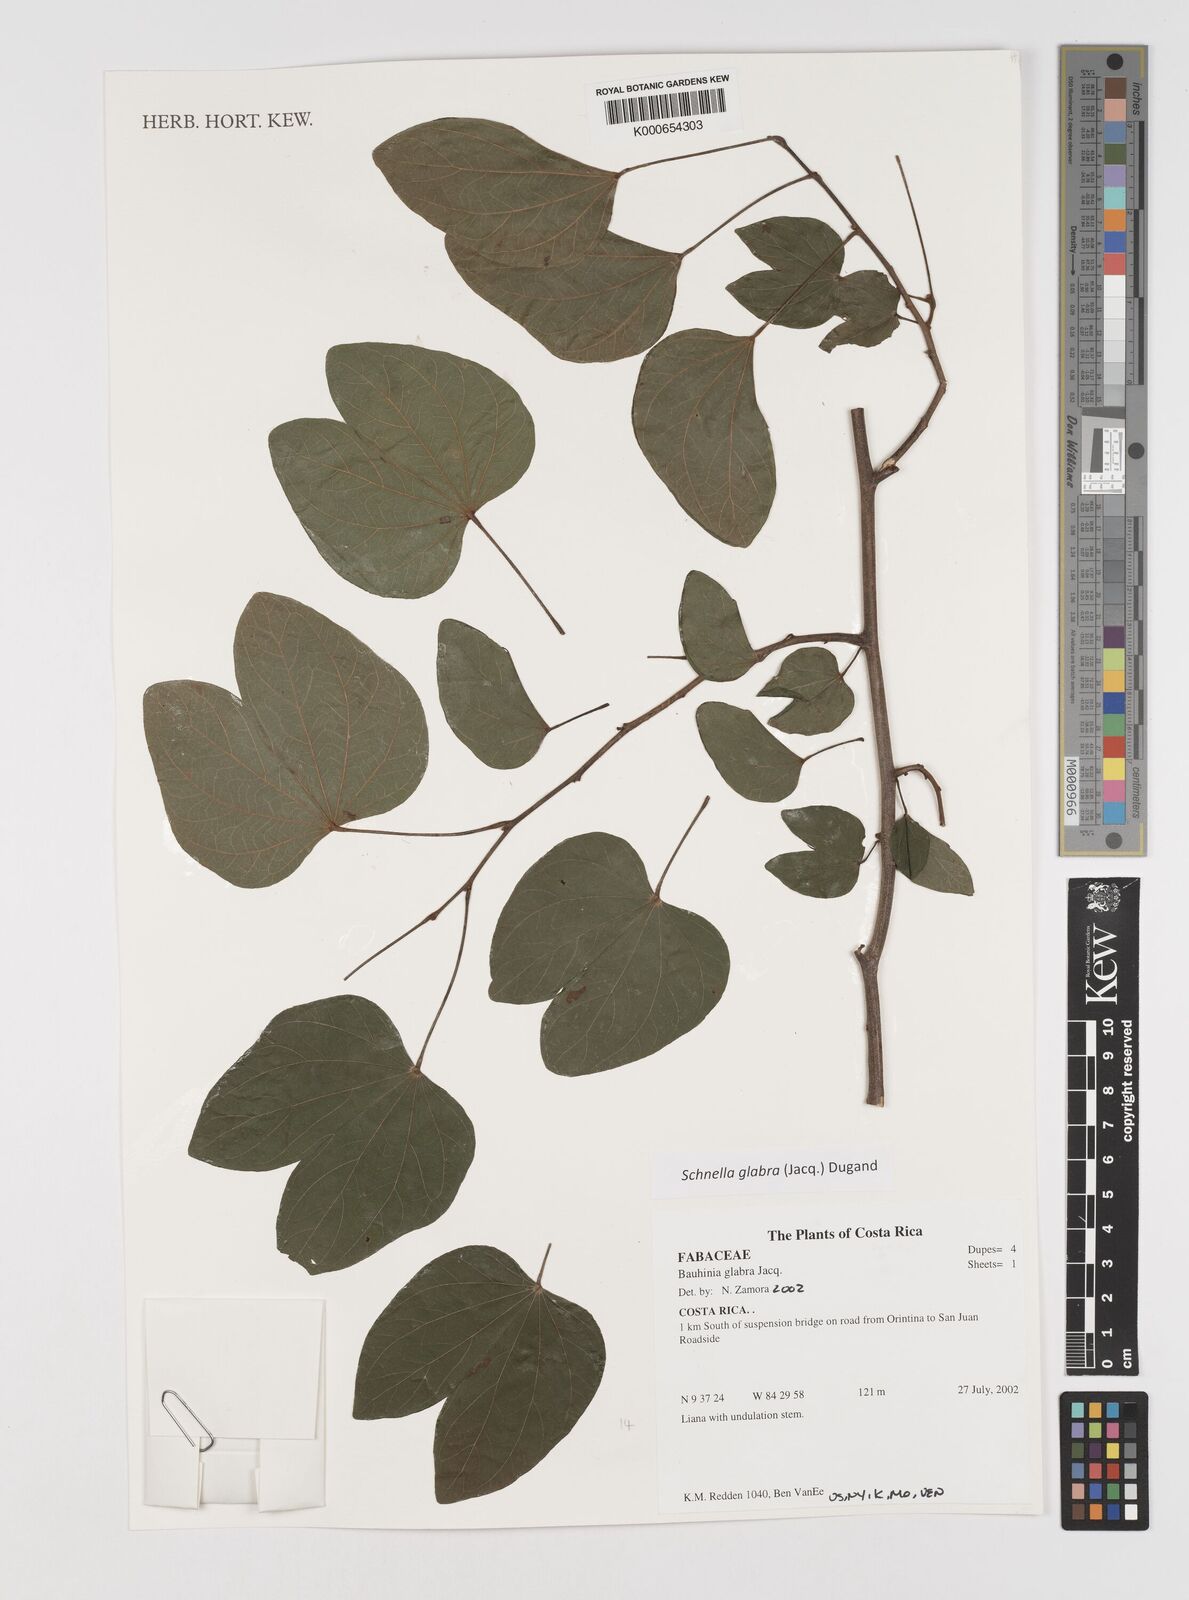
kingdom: Plantae
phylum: Tracheophyta
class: Magnoliopsida
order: Fabales
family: Fabaceae
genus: Schnella
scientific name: Schnella glabra
